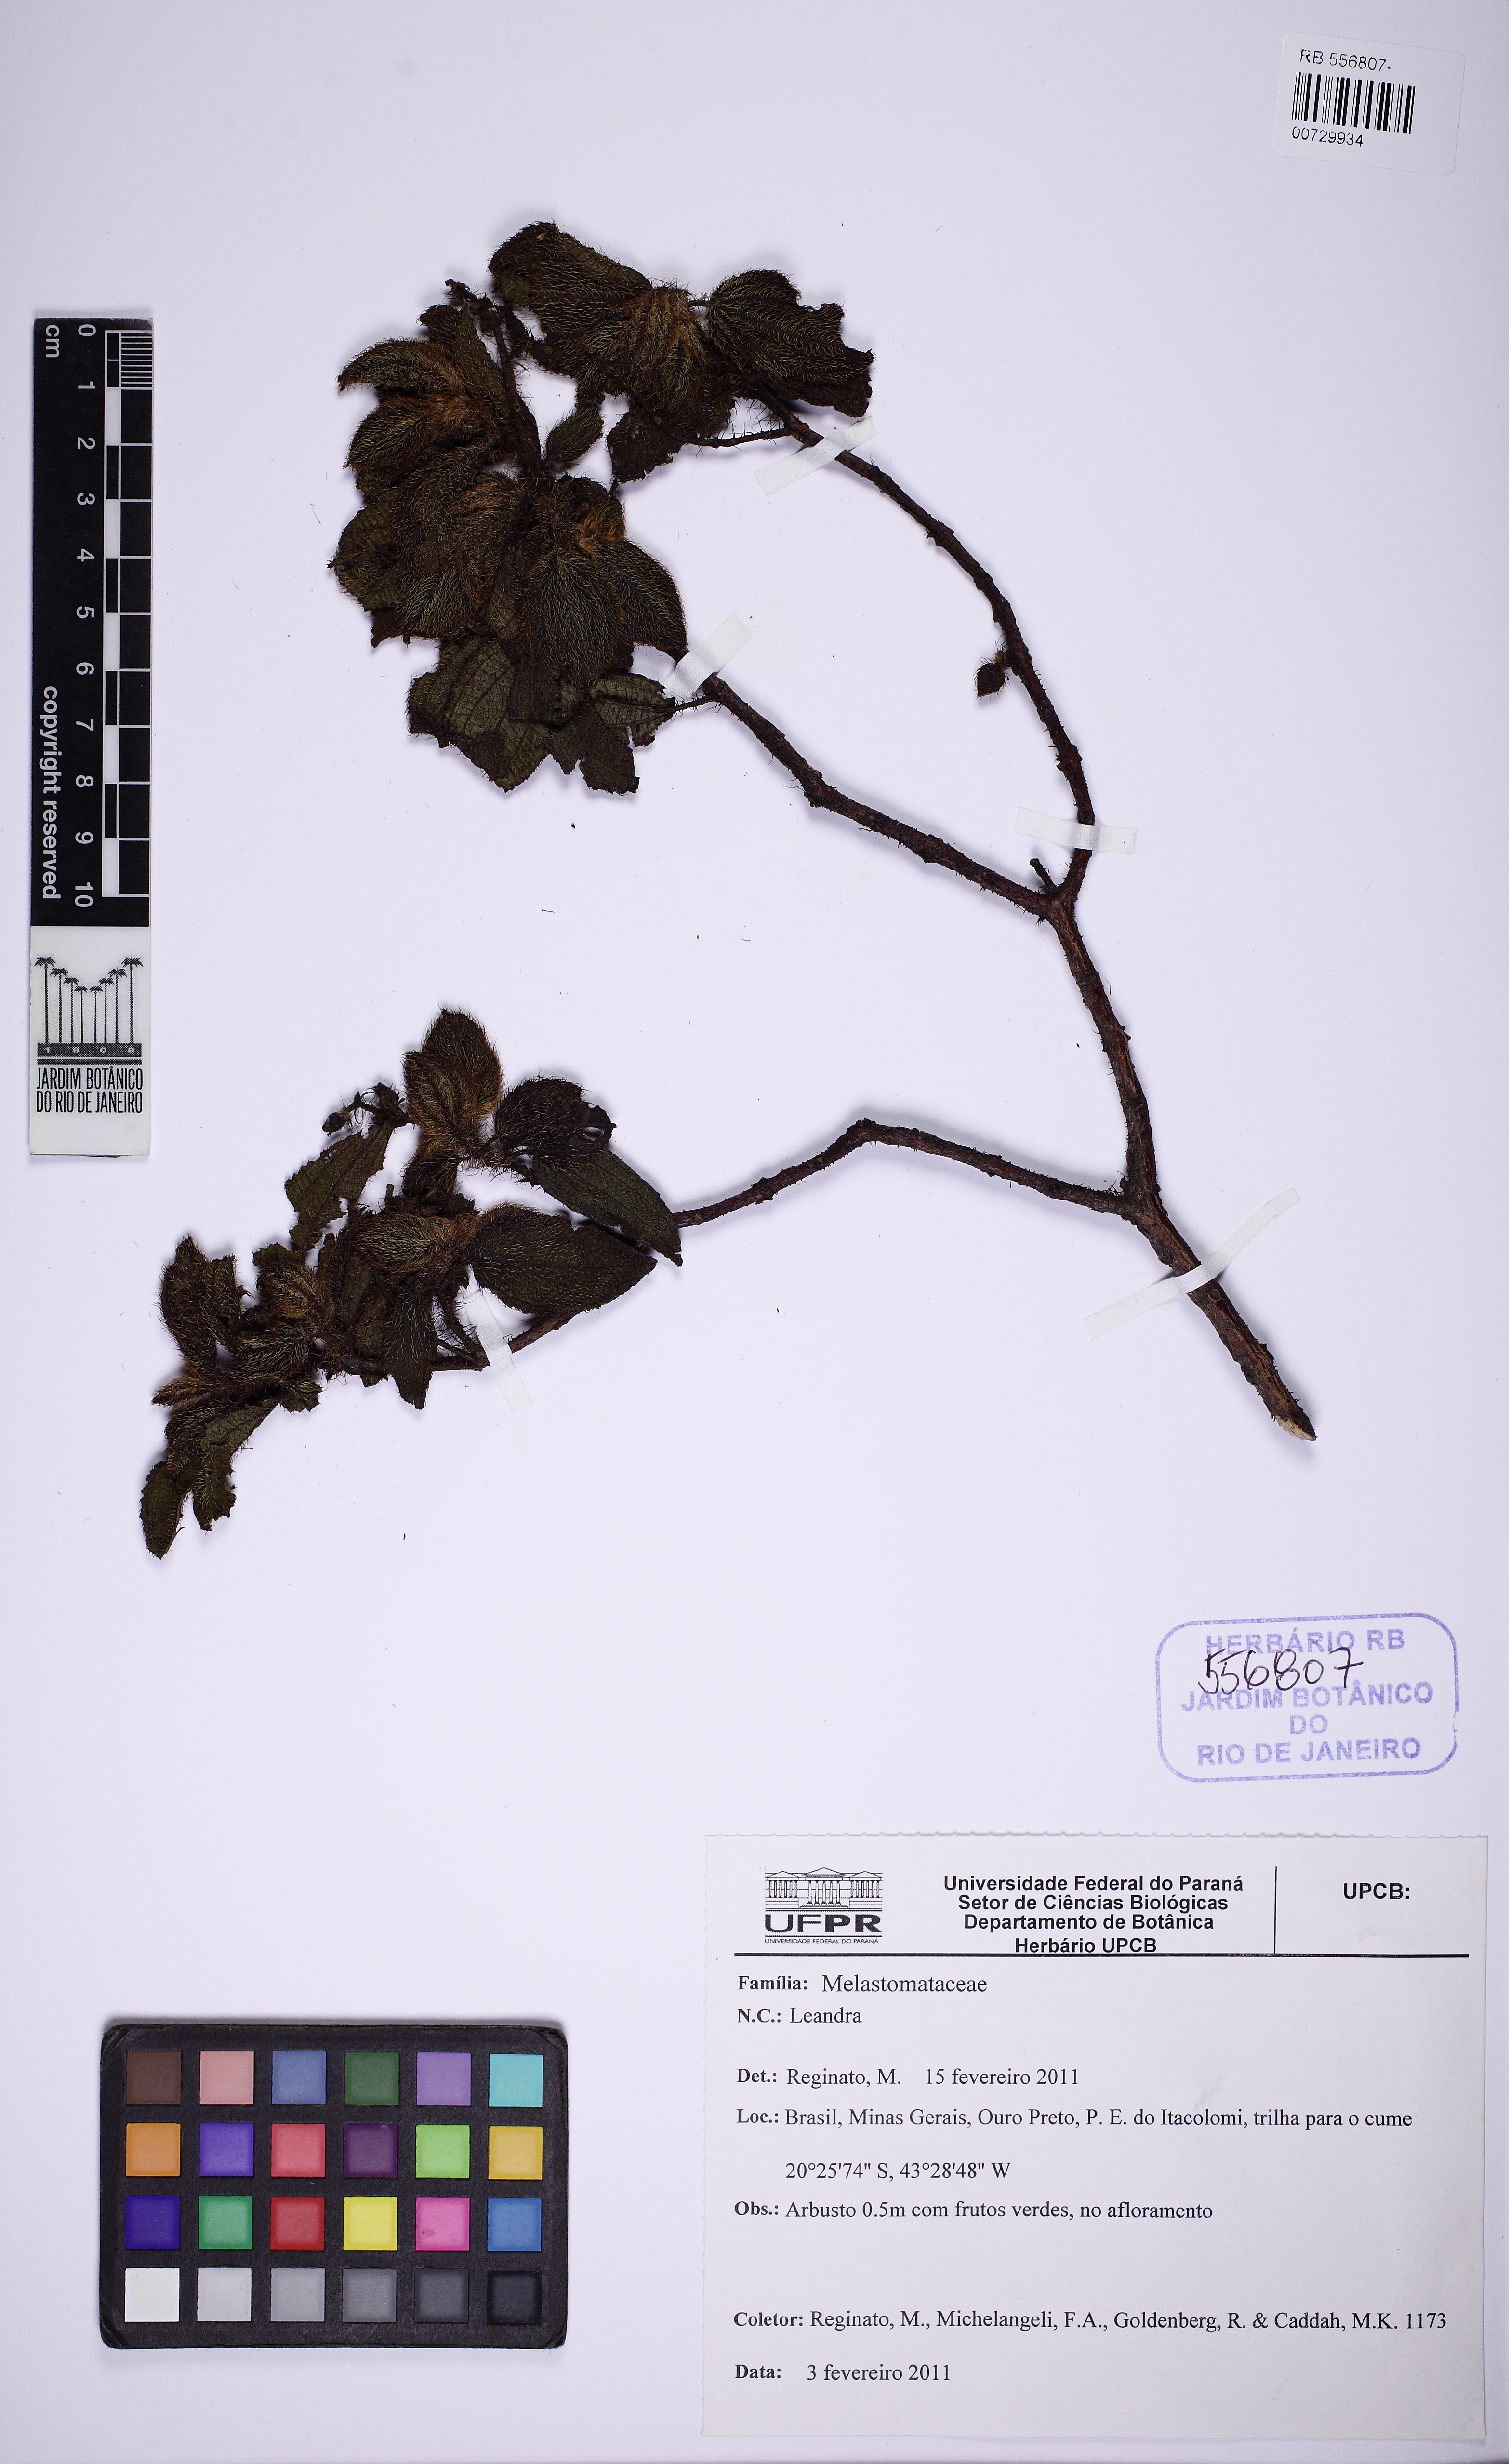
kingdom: Plantae
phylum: Tracheophyta
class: Magnoliopsida
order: Myrtales
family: Melastomataceae
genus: Miconia
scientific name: Miconia
